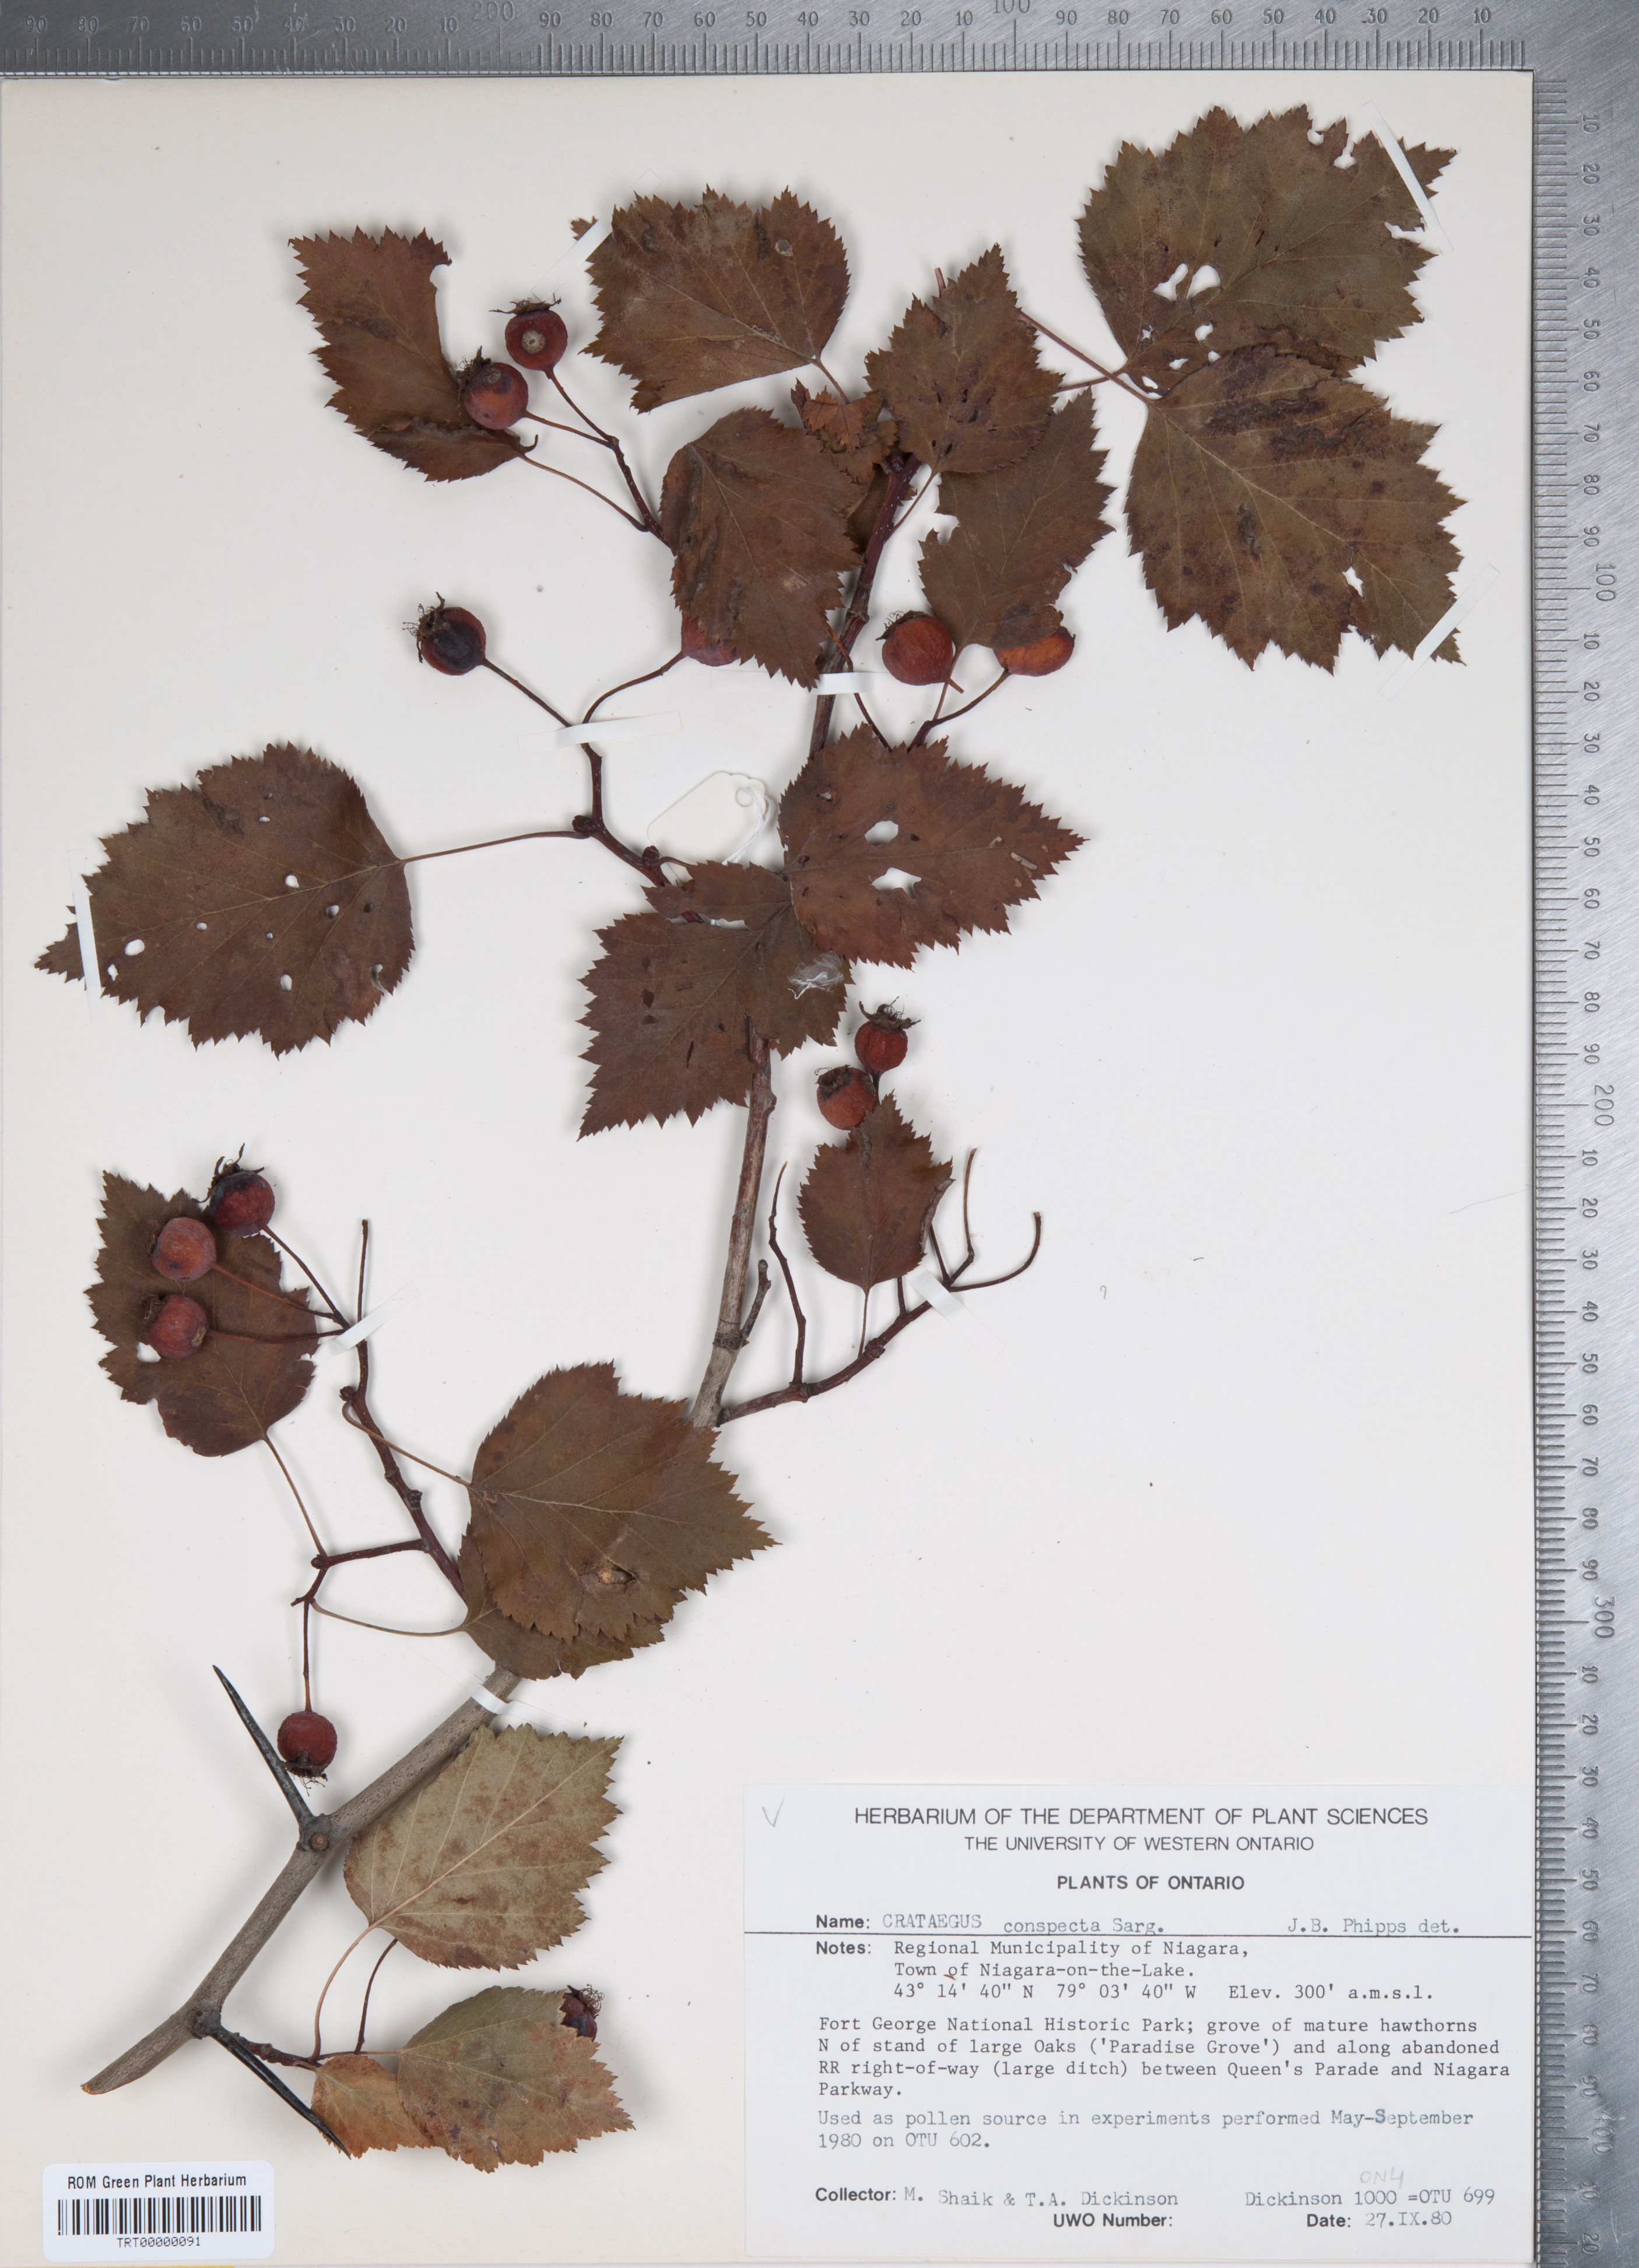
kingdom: Plantae
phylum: Tracheophyta
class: Magnoliopsida
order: Rosales
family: Rosaceae
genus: Crataegus
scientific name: Crataegus coccinioides
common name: Large-flowered cockspurthorn
